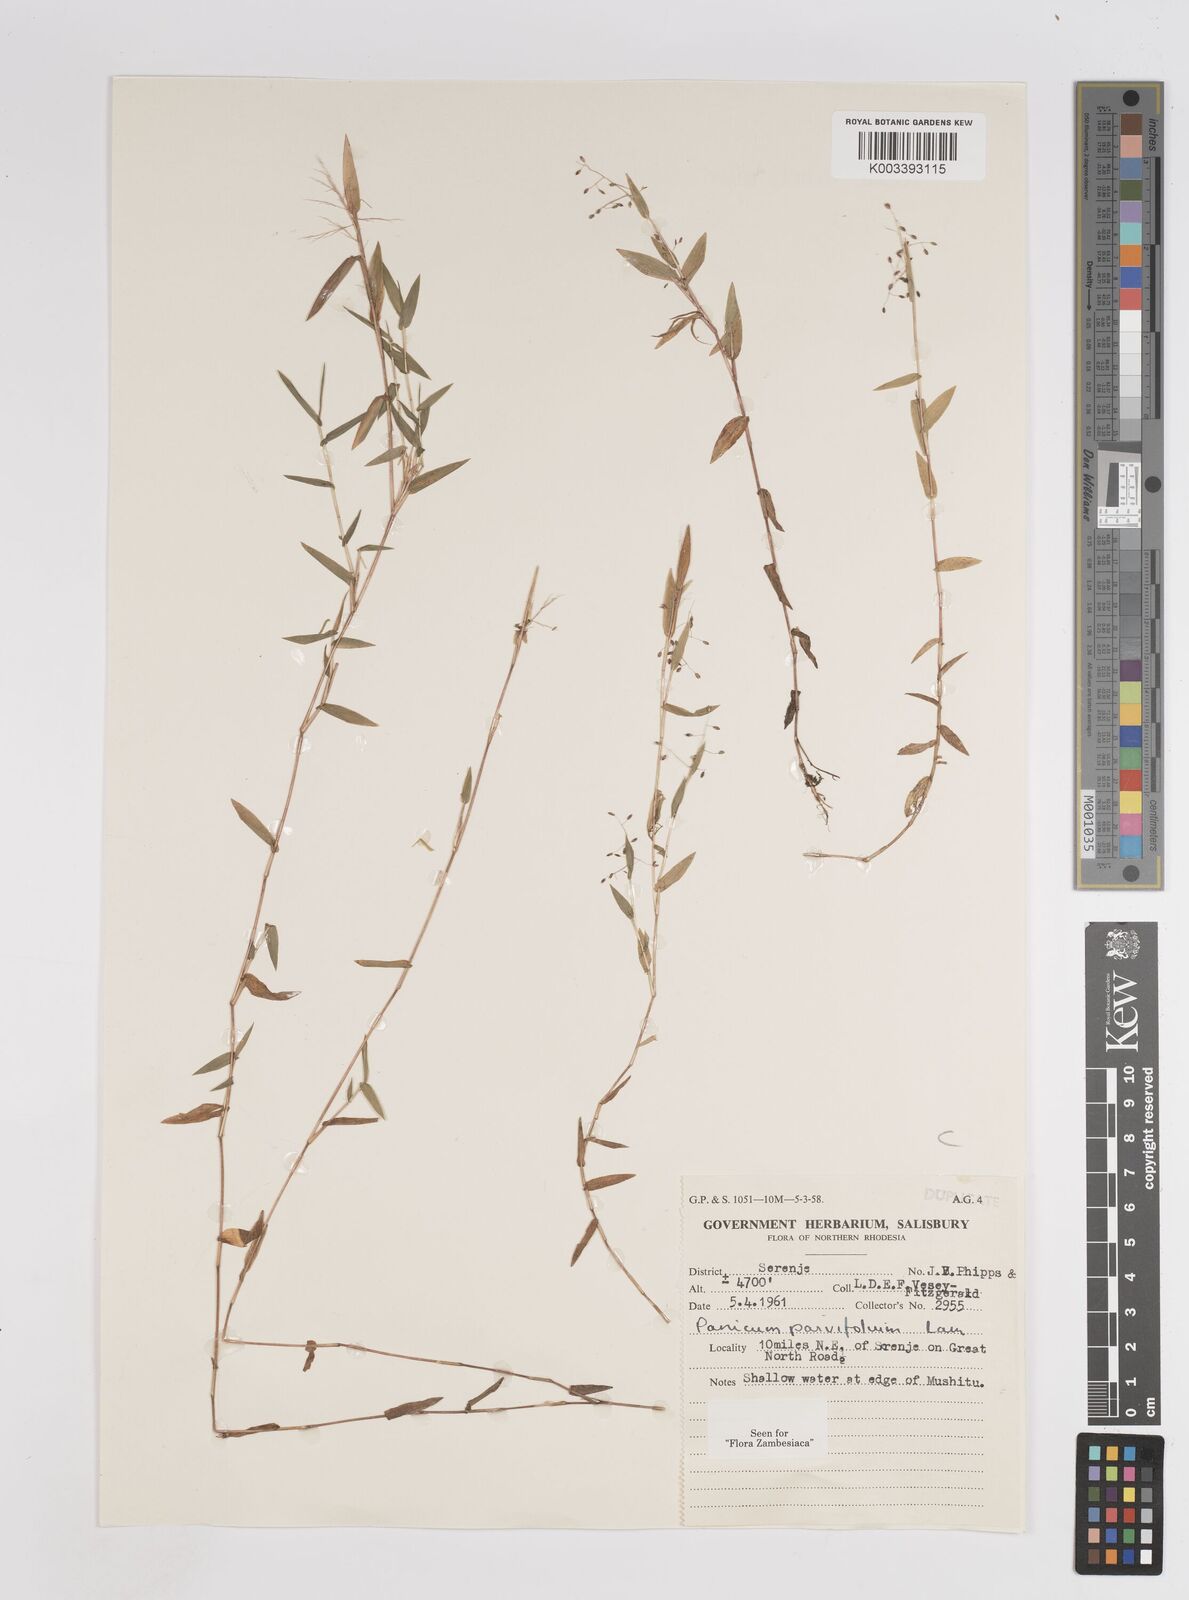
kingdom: Plantae
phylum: Tracheophyta
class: Liliopsida
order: Poales
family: Poaceae
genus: Trichanthecium
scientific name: Trichanthecium parvifolium
